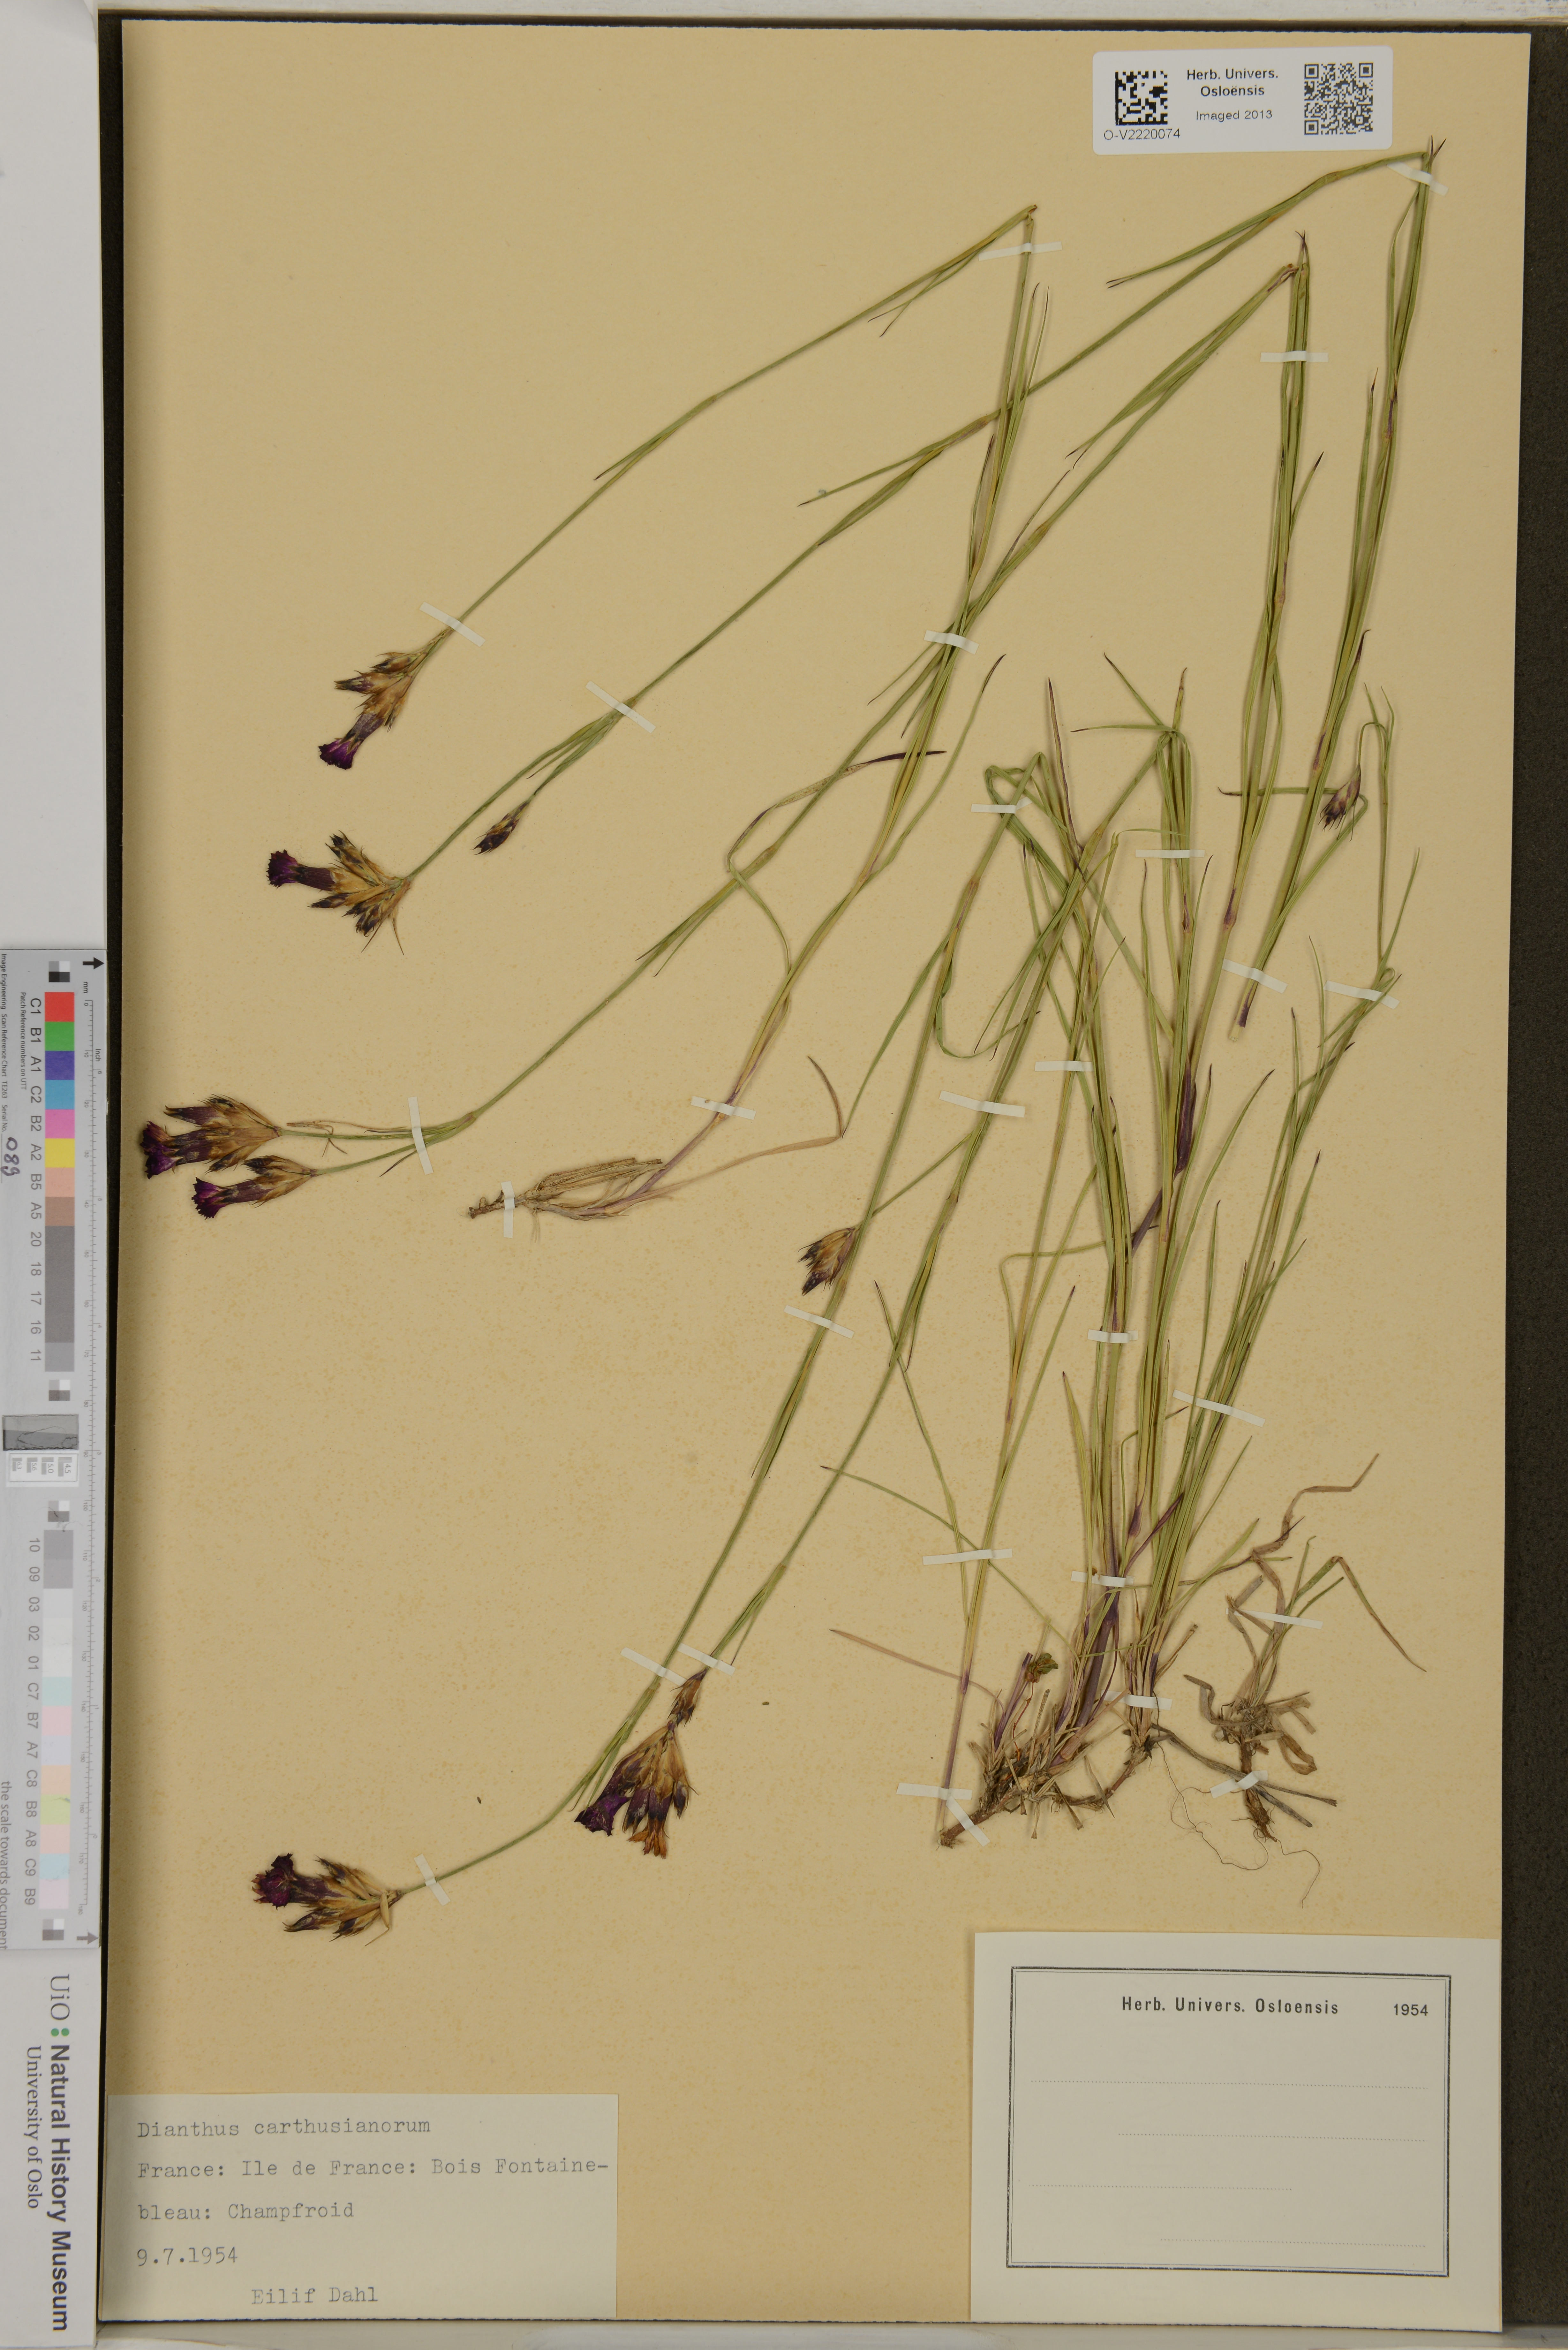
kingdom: Plantae
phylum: Tracheophyta
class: Magnoliopsida
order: Caryophyllales
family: Caryophyllaceae
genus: Dianthus
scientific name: Dianthus carthusianorum
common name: Carthusian pink
